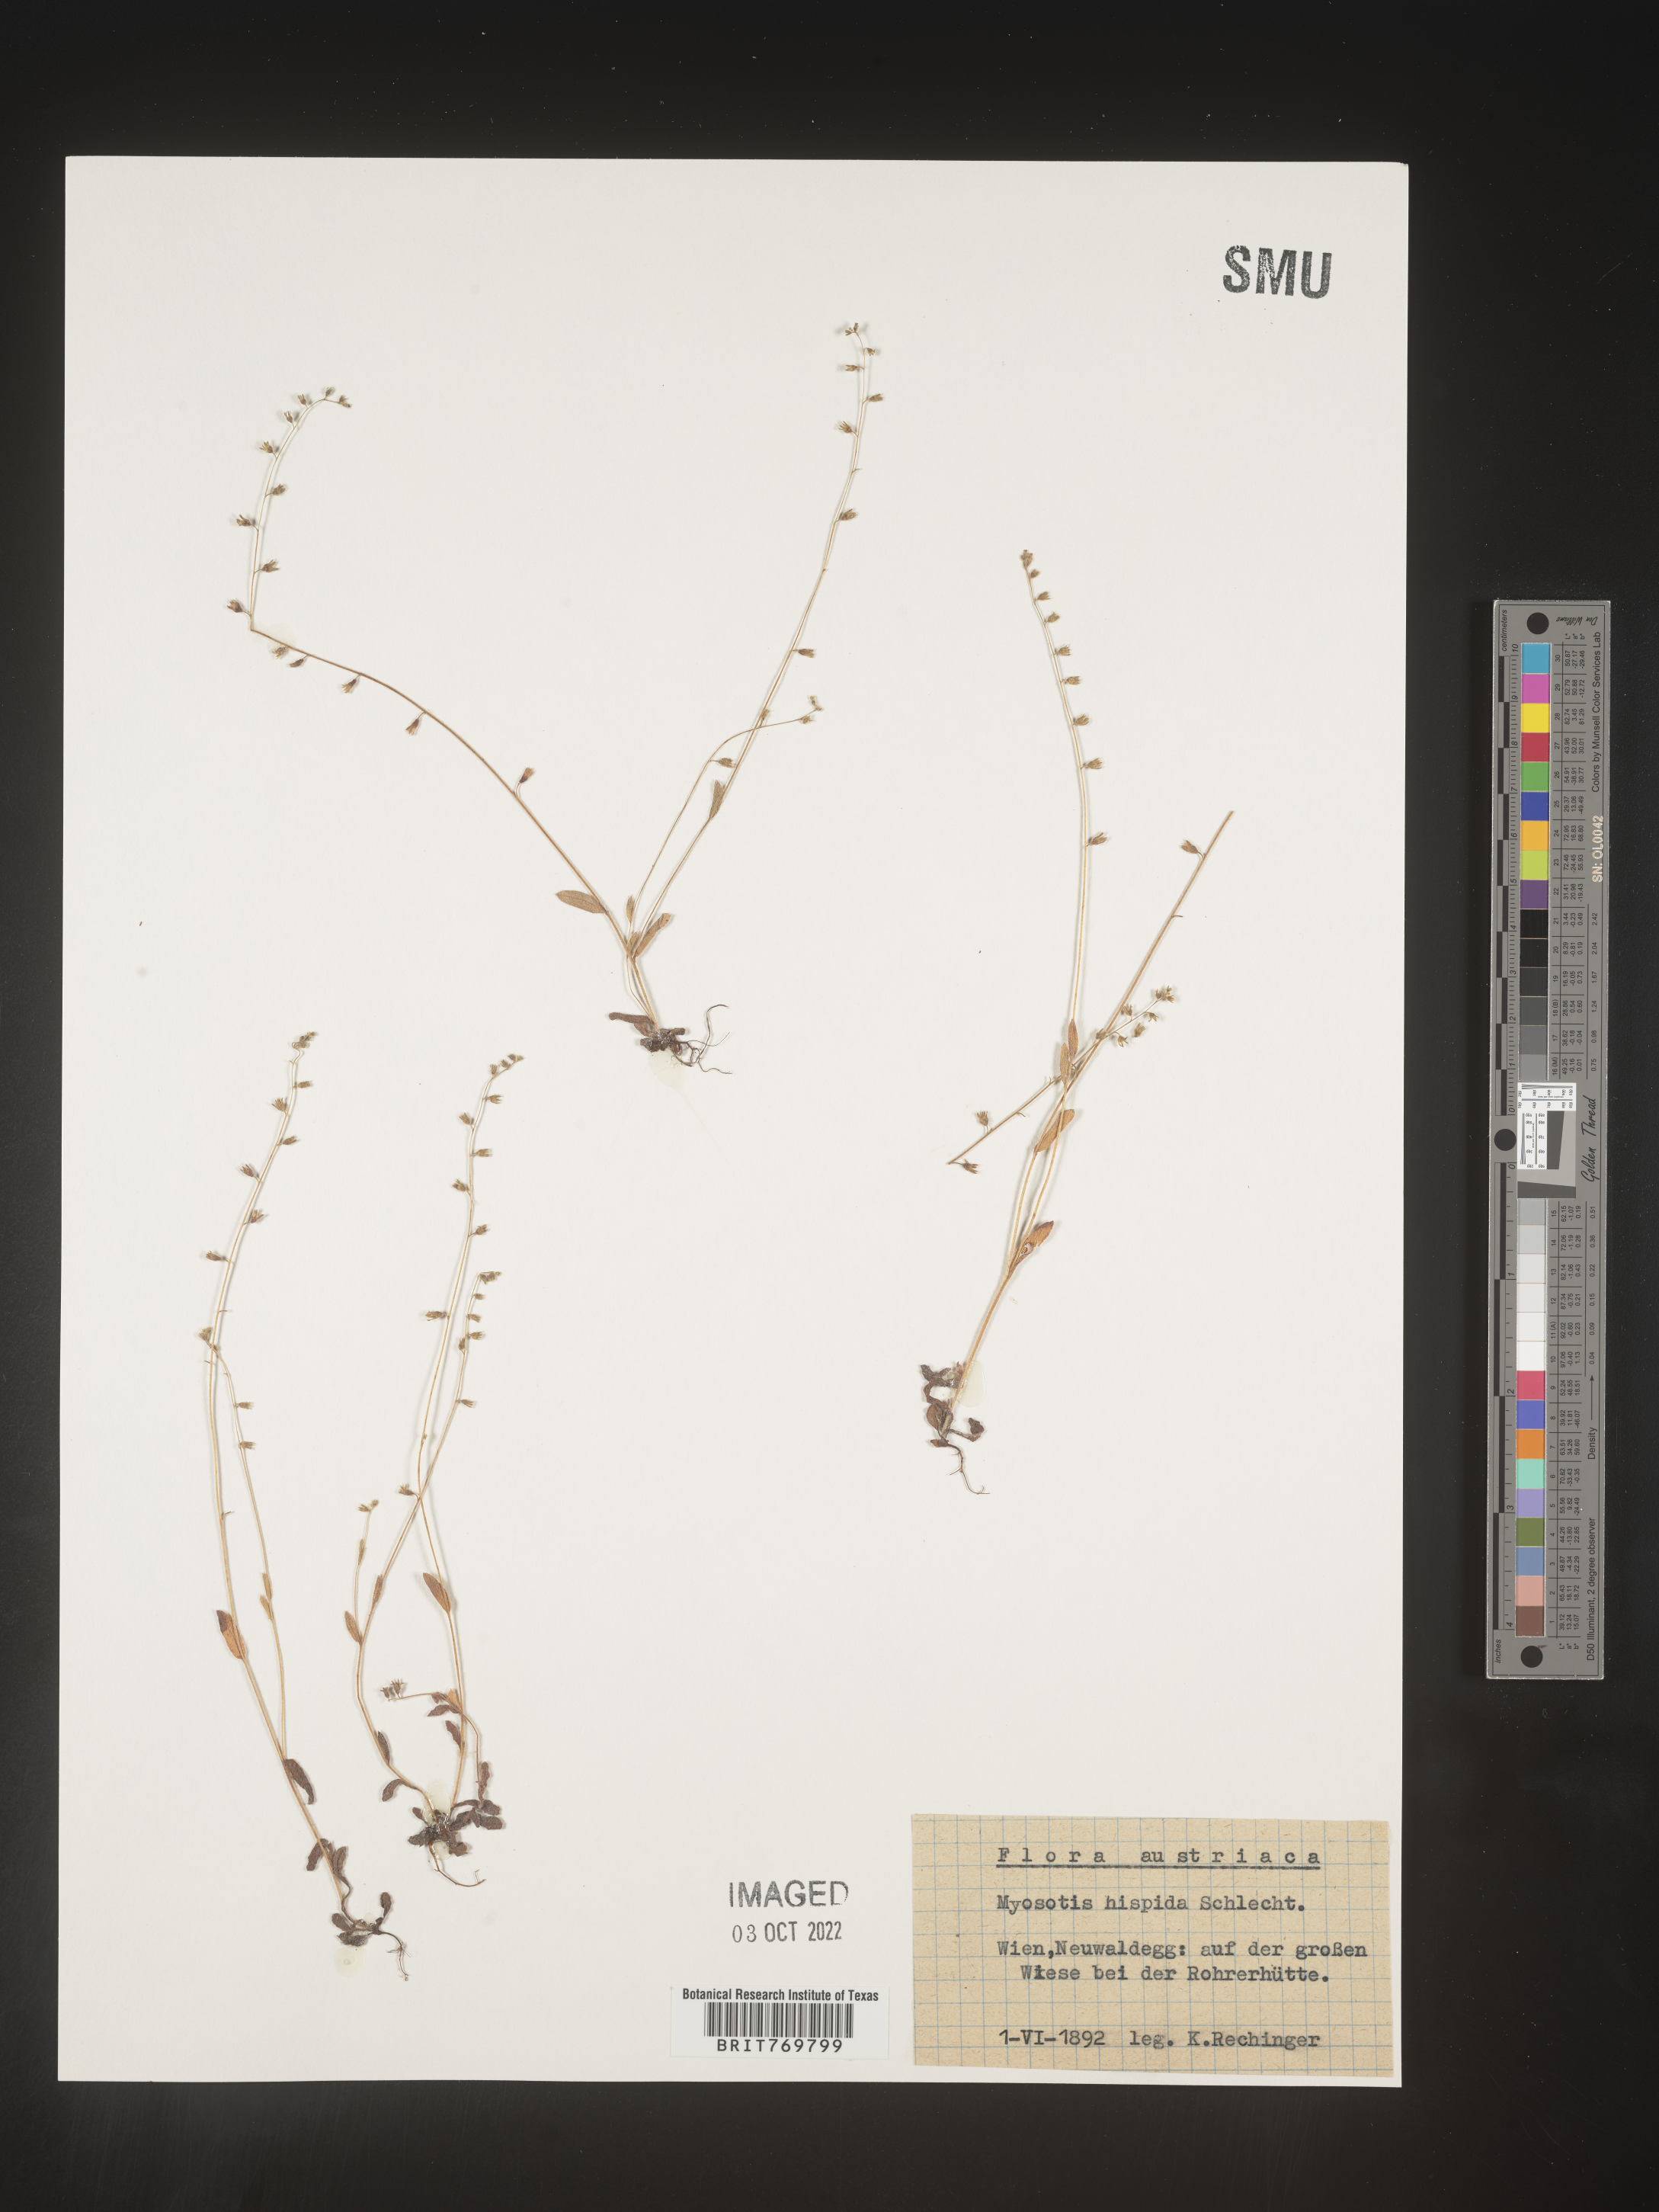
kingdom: Plantae
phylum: Tracheophyta
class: Magnoliopsida
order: Boraginales
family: Boraginaceae
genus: Myosotis
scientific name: Myosotis
